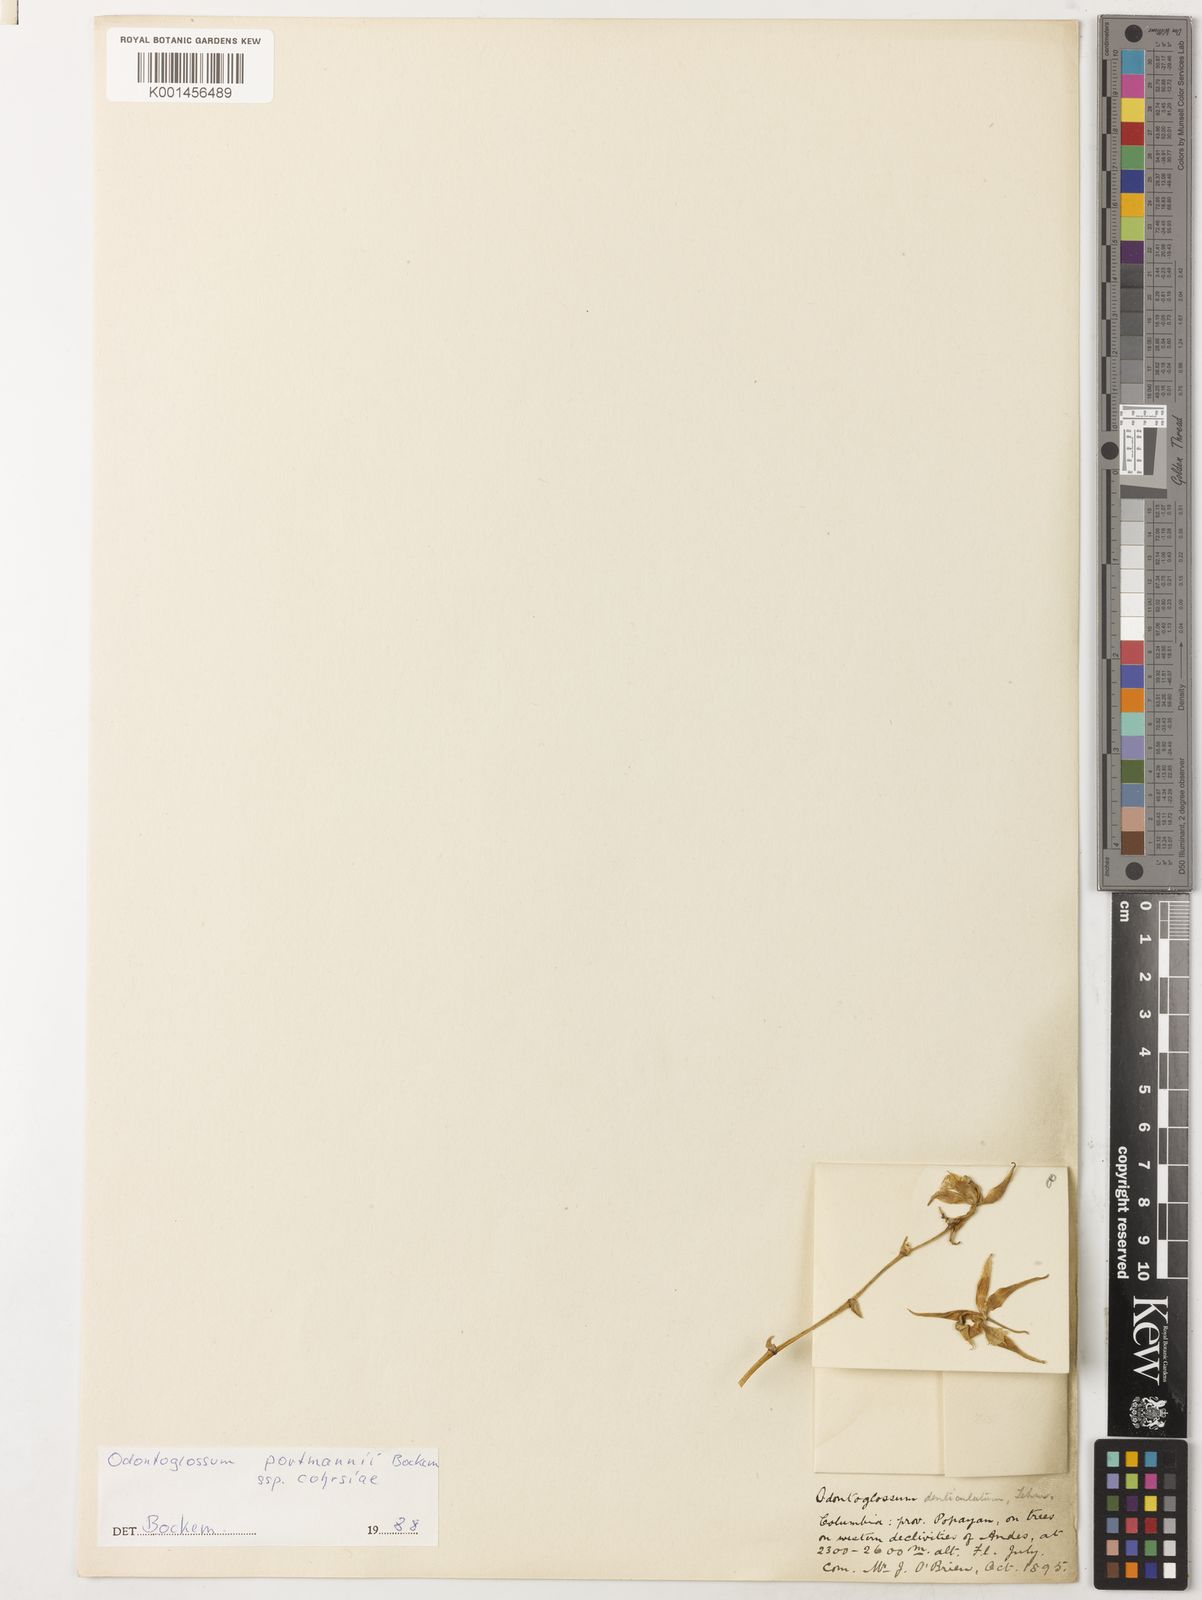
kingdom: Plantae
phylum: Tracheophyta
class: Liliopsida
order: Asparagales
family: Orchidaceae
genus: Oncidium
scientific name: Oncidium portmannii
